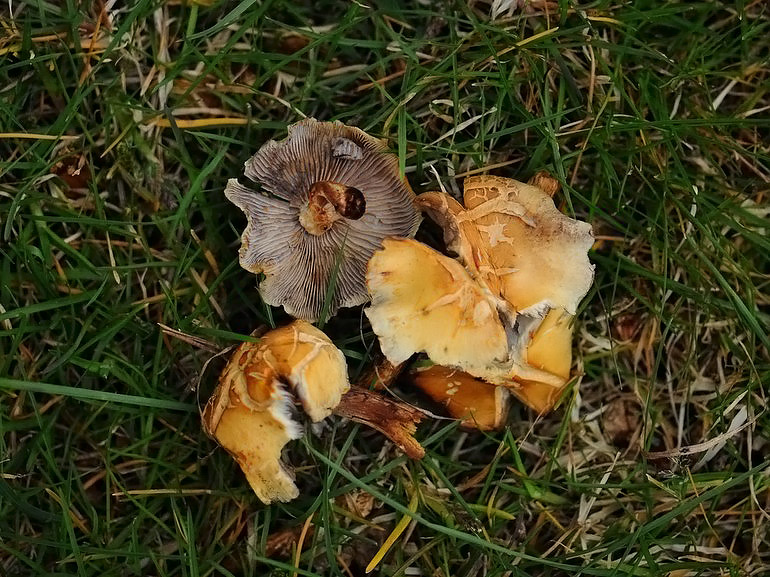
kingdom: Fungi
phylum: Basidiomycota
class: Agaricomycetes
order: Agaricales
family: Strophariaceae
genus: Hypholoma
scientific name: Hypholoma capnoides
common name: gran-svovlhat
